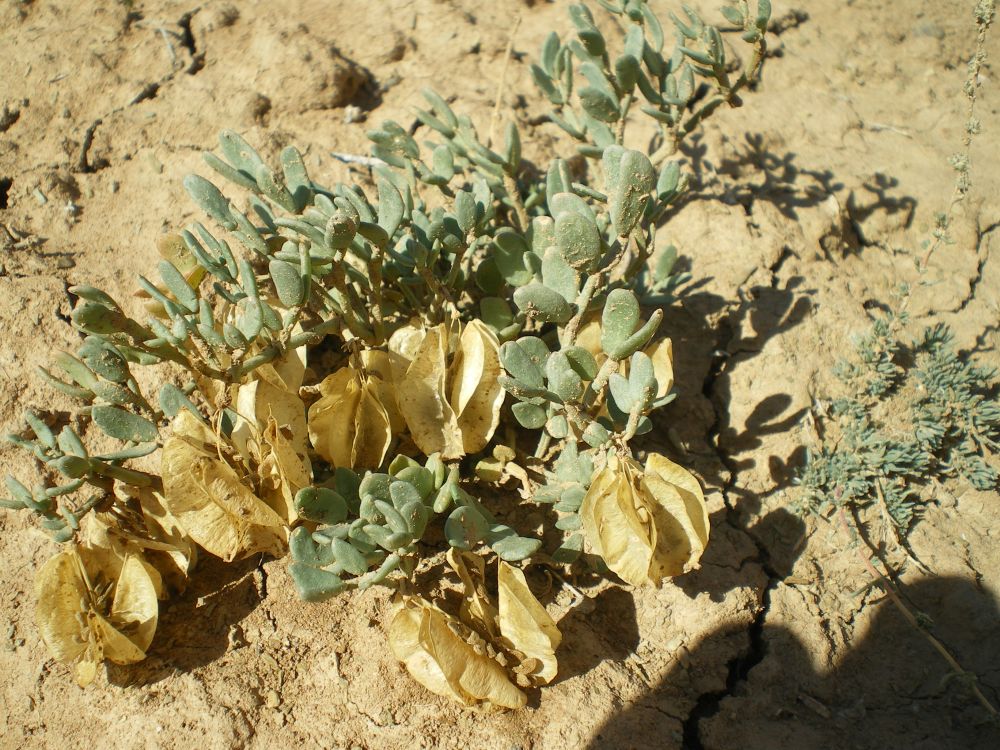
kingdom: Plantae
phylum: Tracheophyta
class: Magnoliopsida
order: Zygophyllales
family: Zygophyllaceae
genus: Zygophyllum
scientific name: Zygophyllum pinnatum
